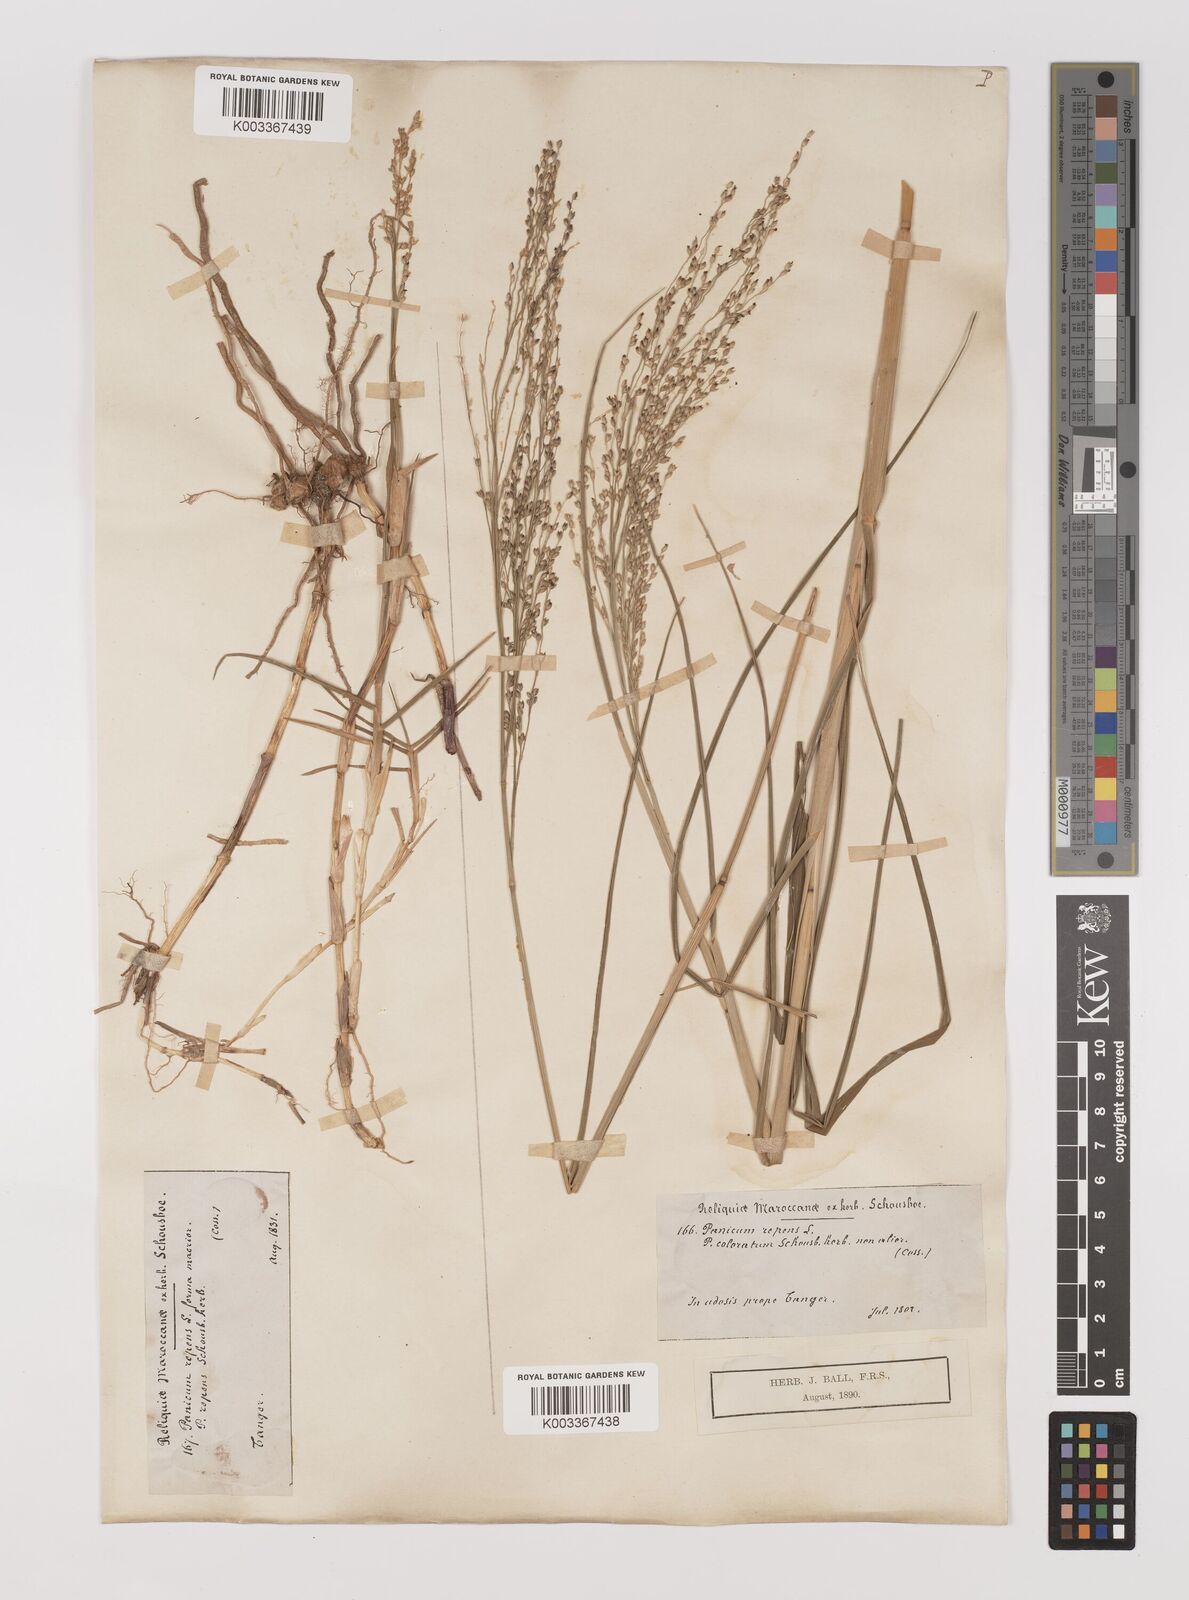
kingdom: Plantae
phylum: Tracheophyta
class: Liliopsida
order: Poales
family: Poaceae
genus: Panicum
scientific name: Panicum repens
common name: Torpedo grass
